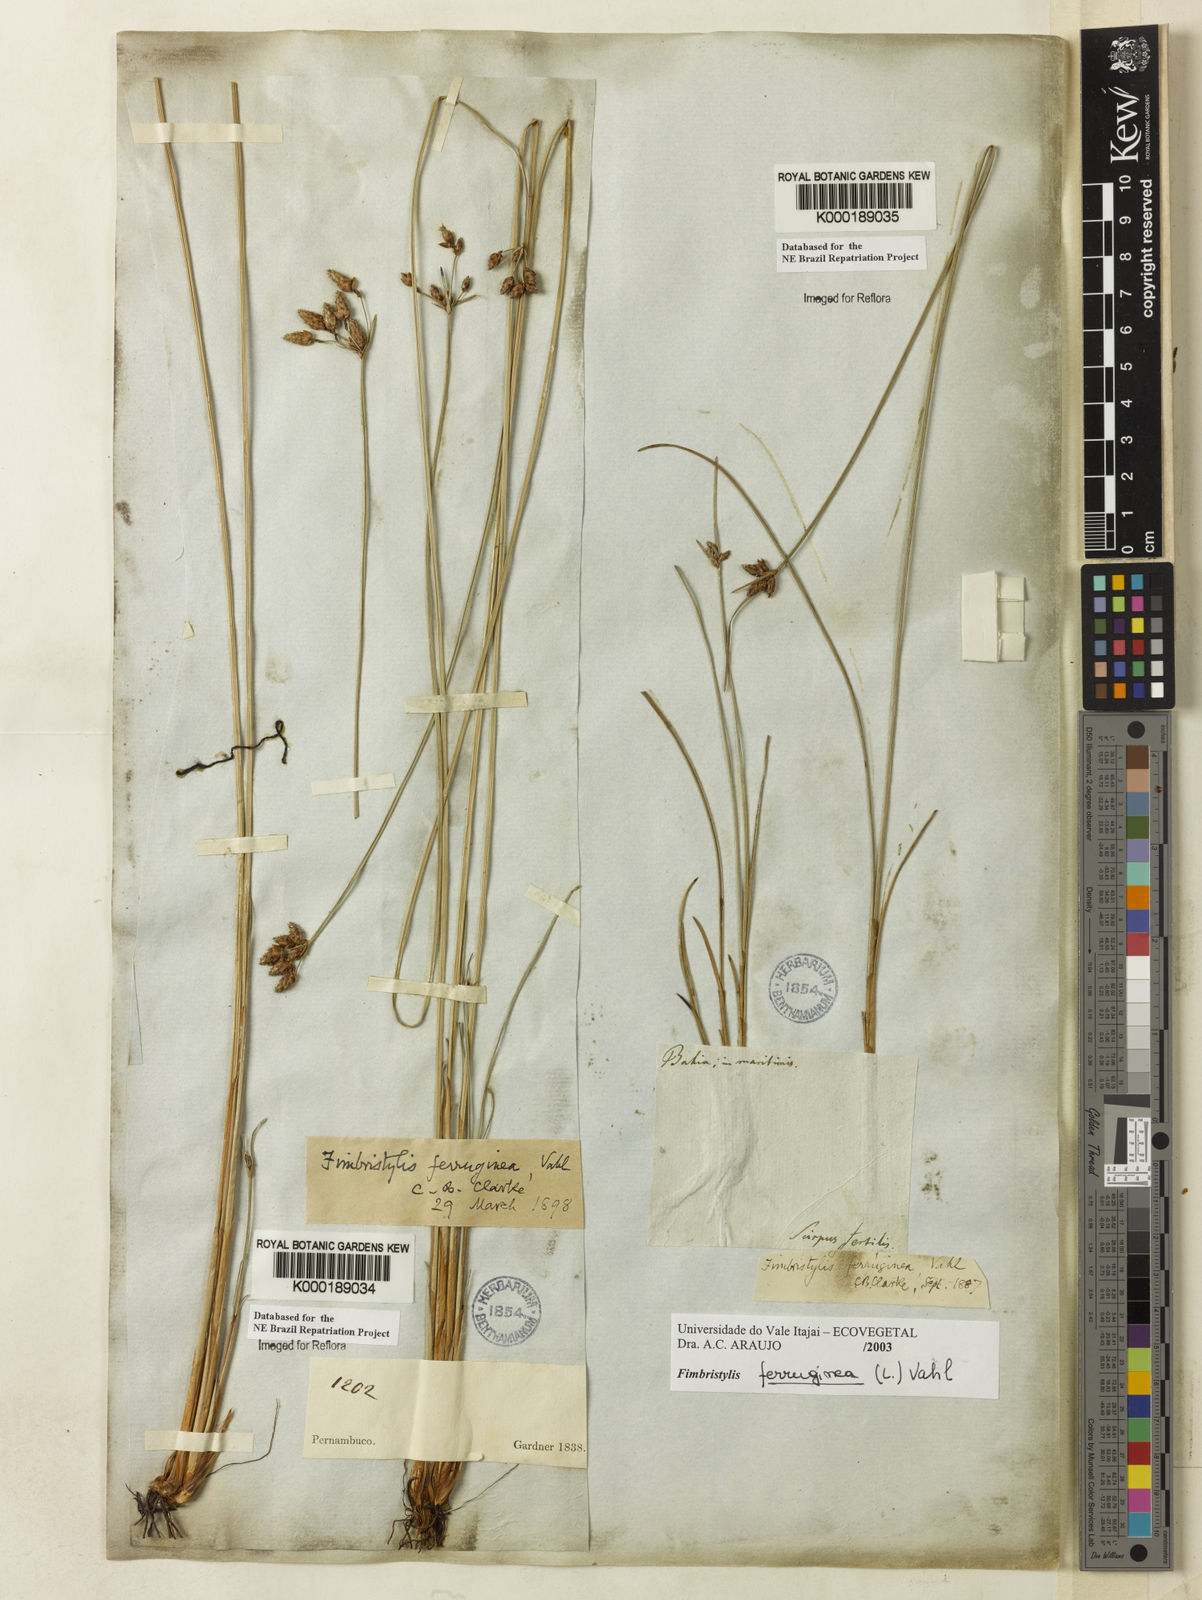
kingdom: Plantae
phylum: Tracheophyta
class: Liliopsida
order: Poales
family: Cyperaceae
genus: Fimbristylis
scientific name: Fimbristylis ferruginea
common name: West indian fimbry
